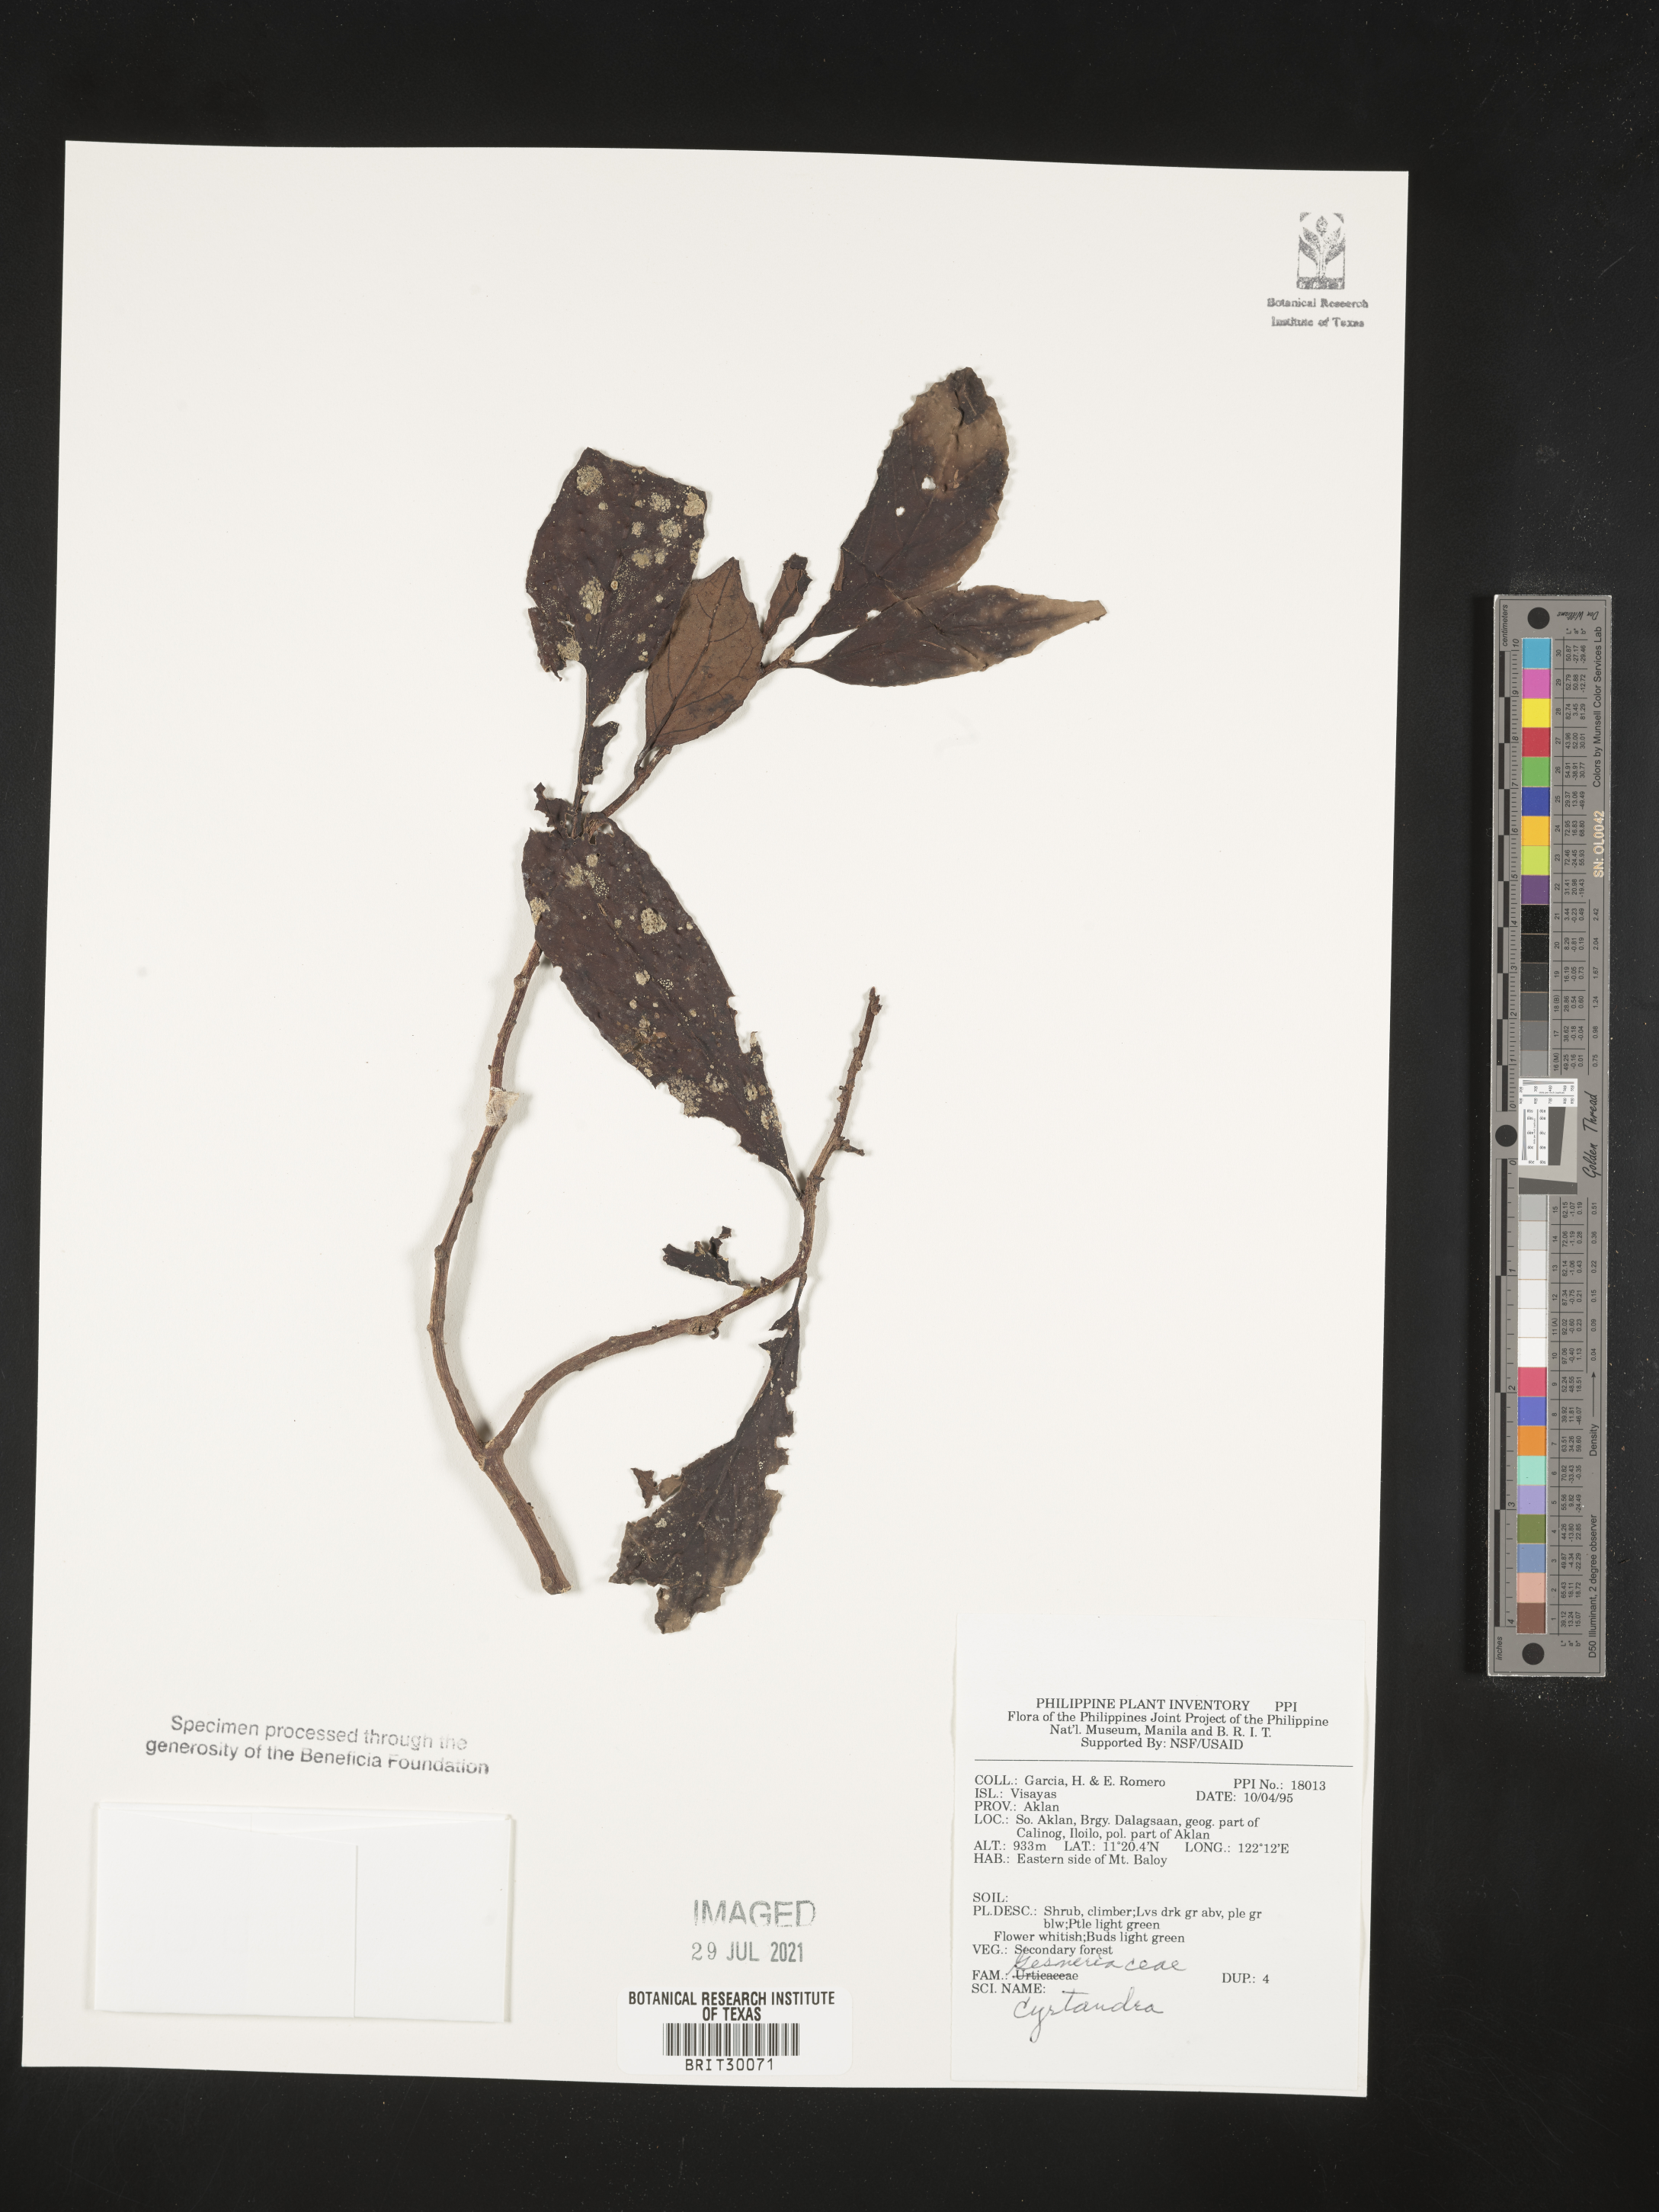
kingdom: Plantae
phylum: Tracheophyta
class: Magnoliopsida
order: Lamiales
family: Gesneriaceae
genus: Cyrtandra
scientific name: Cyrtandra
